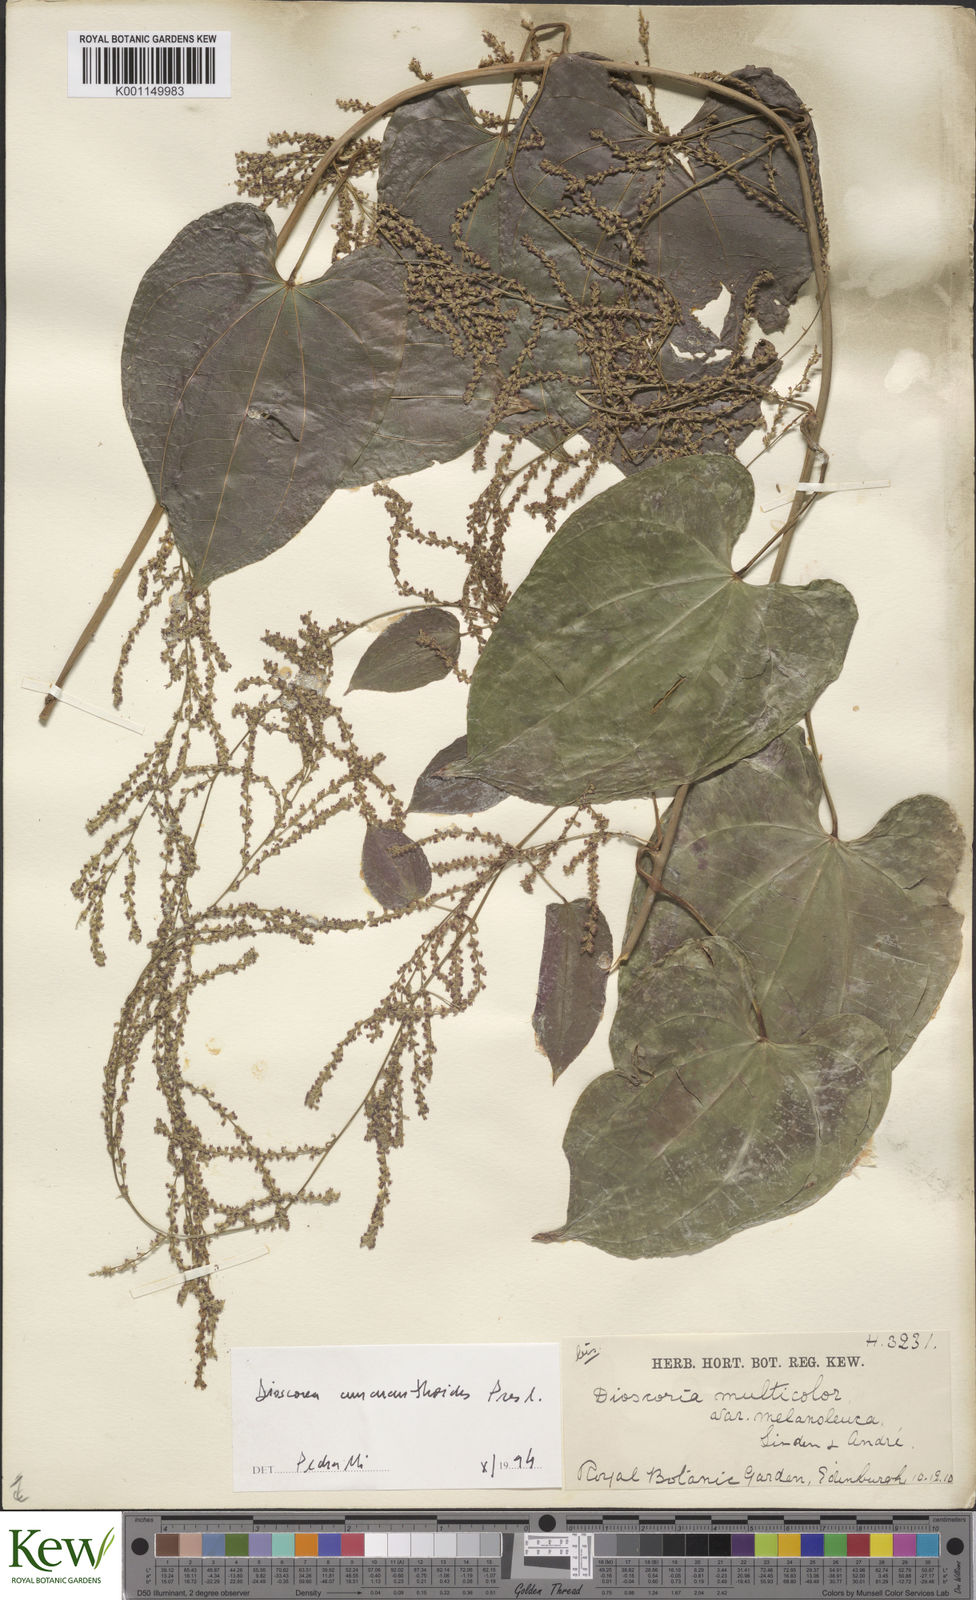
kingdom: Plantae
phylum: Tracheophyta
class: Liliopsida
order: Dioscoreales
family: Dioscoreaceae
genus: Dioscorea
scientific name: Dioscorea amaranthoides
